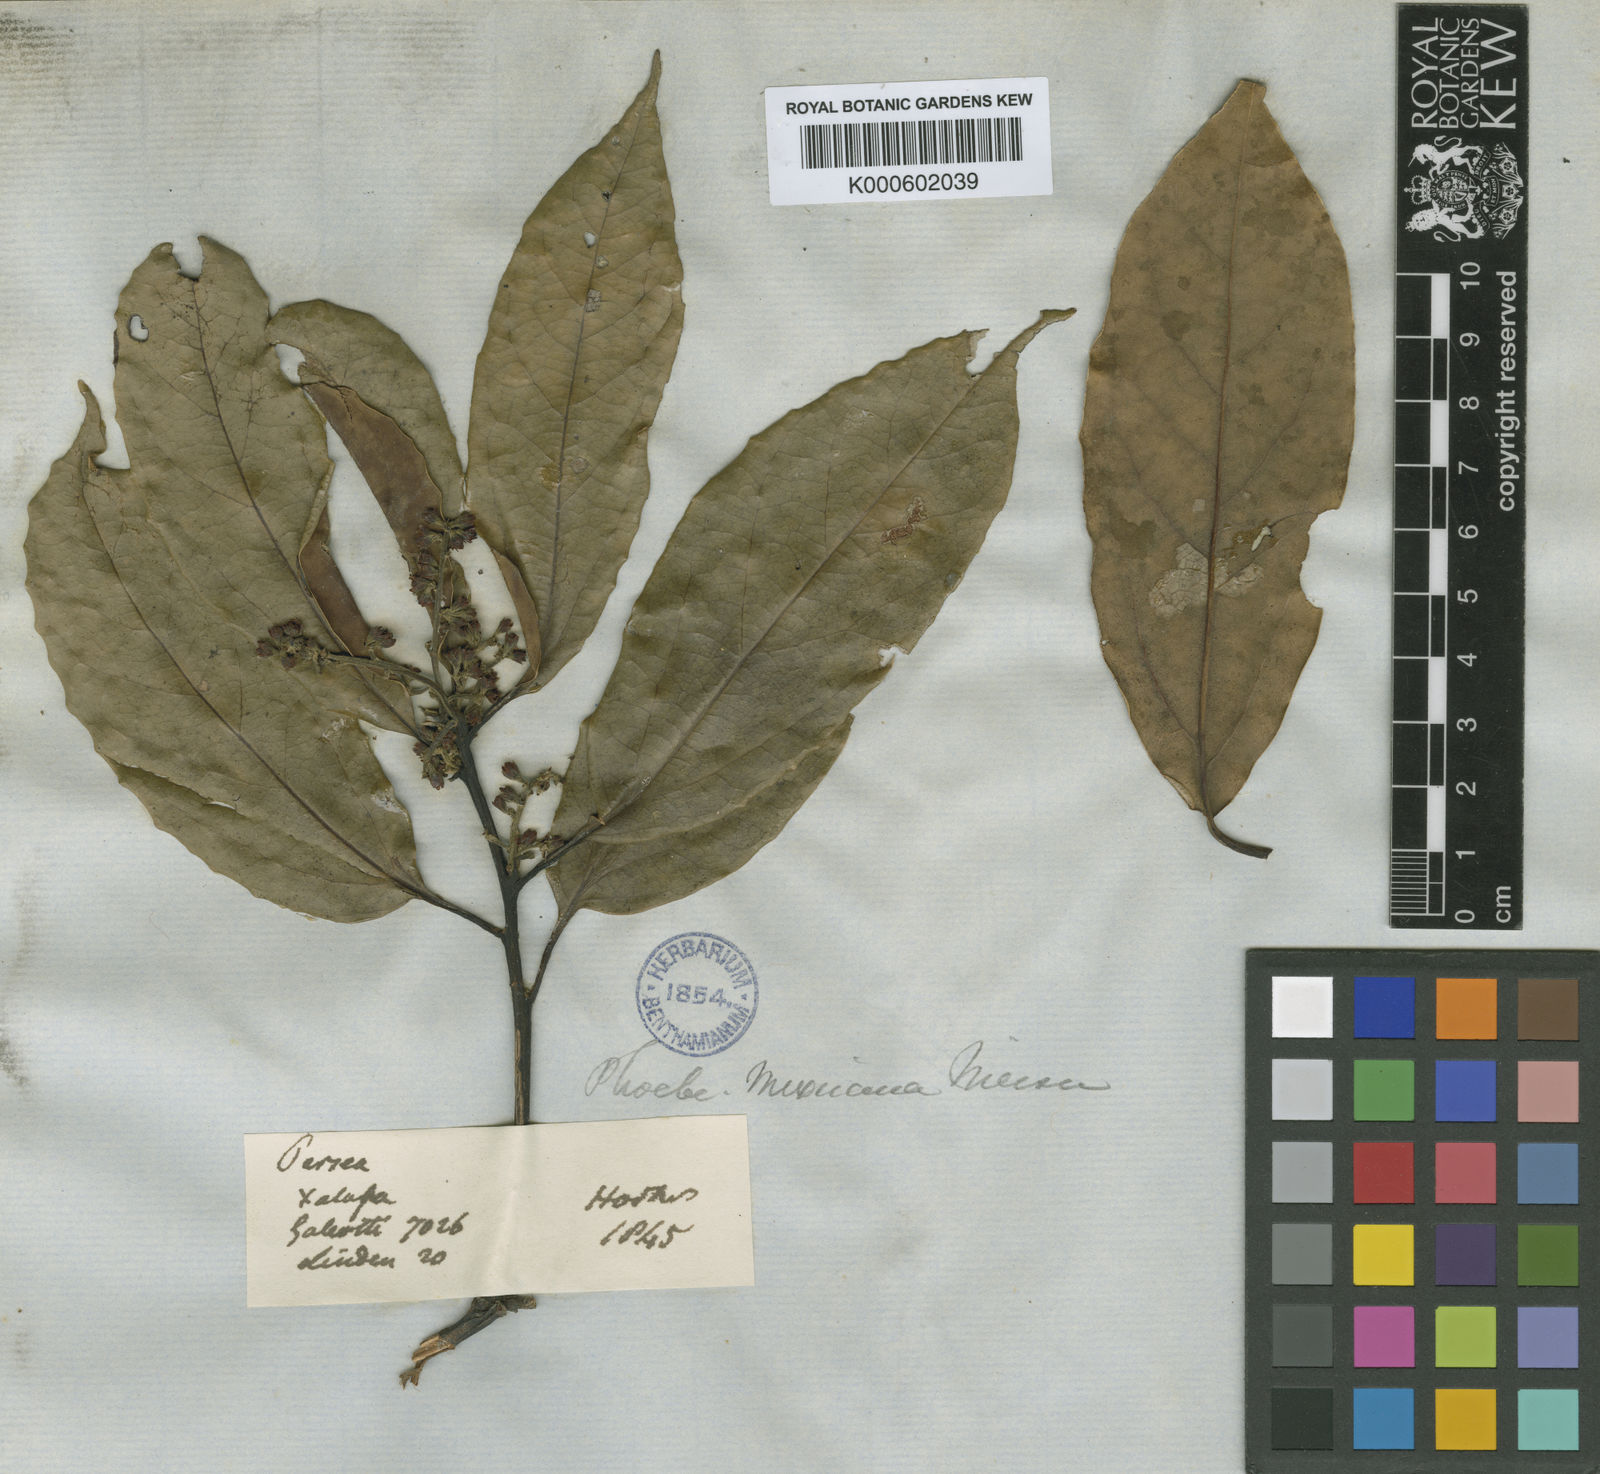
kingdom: Plantae
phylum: Tracheophyta
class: Magnoliopsida
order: Laurales
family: Lauraceae
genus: Aiouea
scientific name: Aiouea montana
